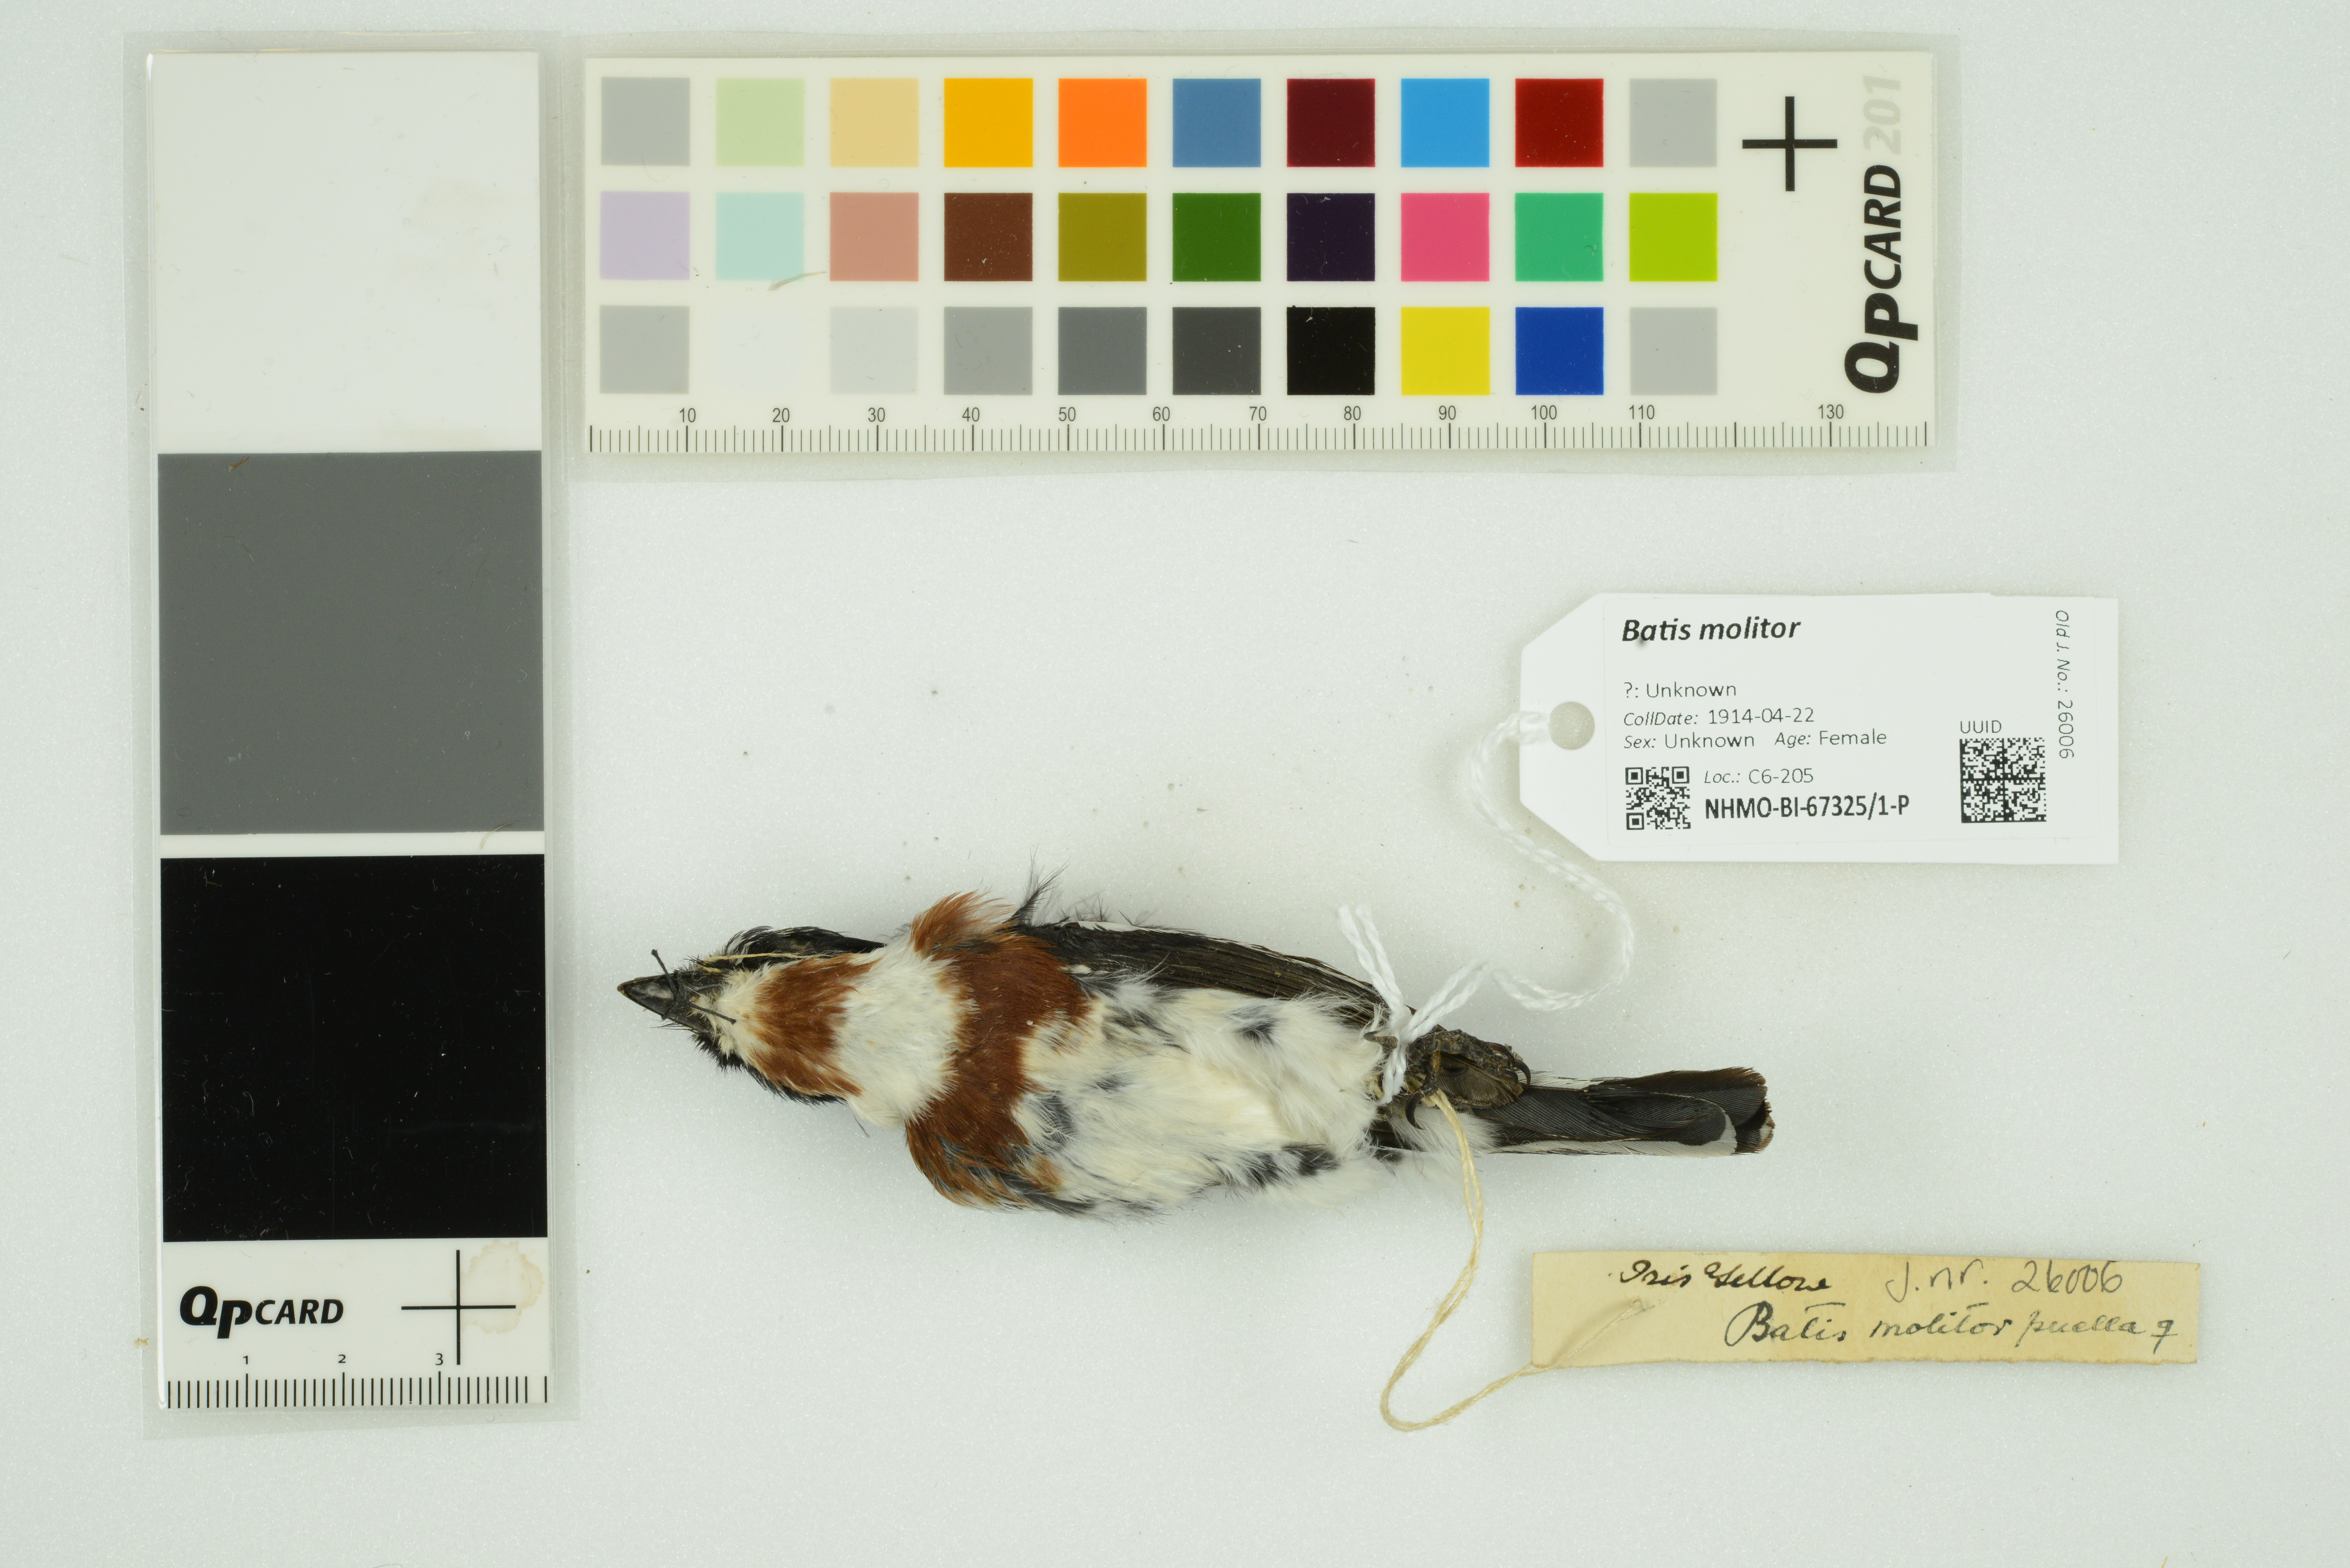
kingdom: Animalia
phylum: Chordata
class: Aves
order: Passeriformes
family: Platysteiridae
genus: Batis
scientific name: Batis molitor
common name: Chinspot batis
